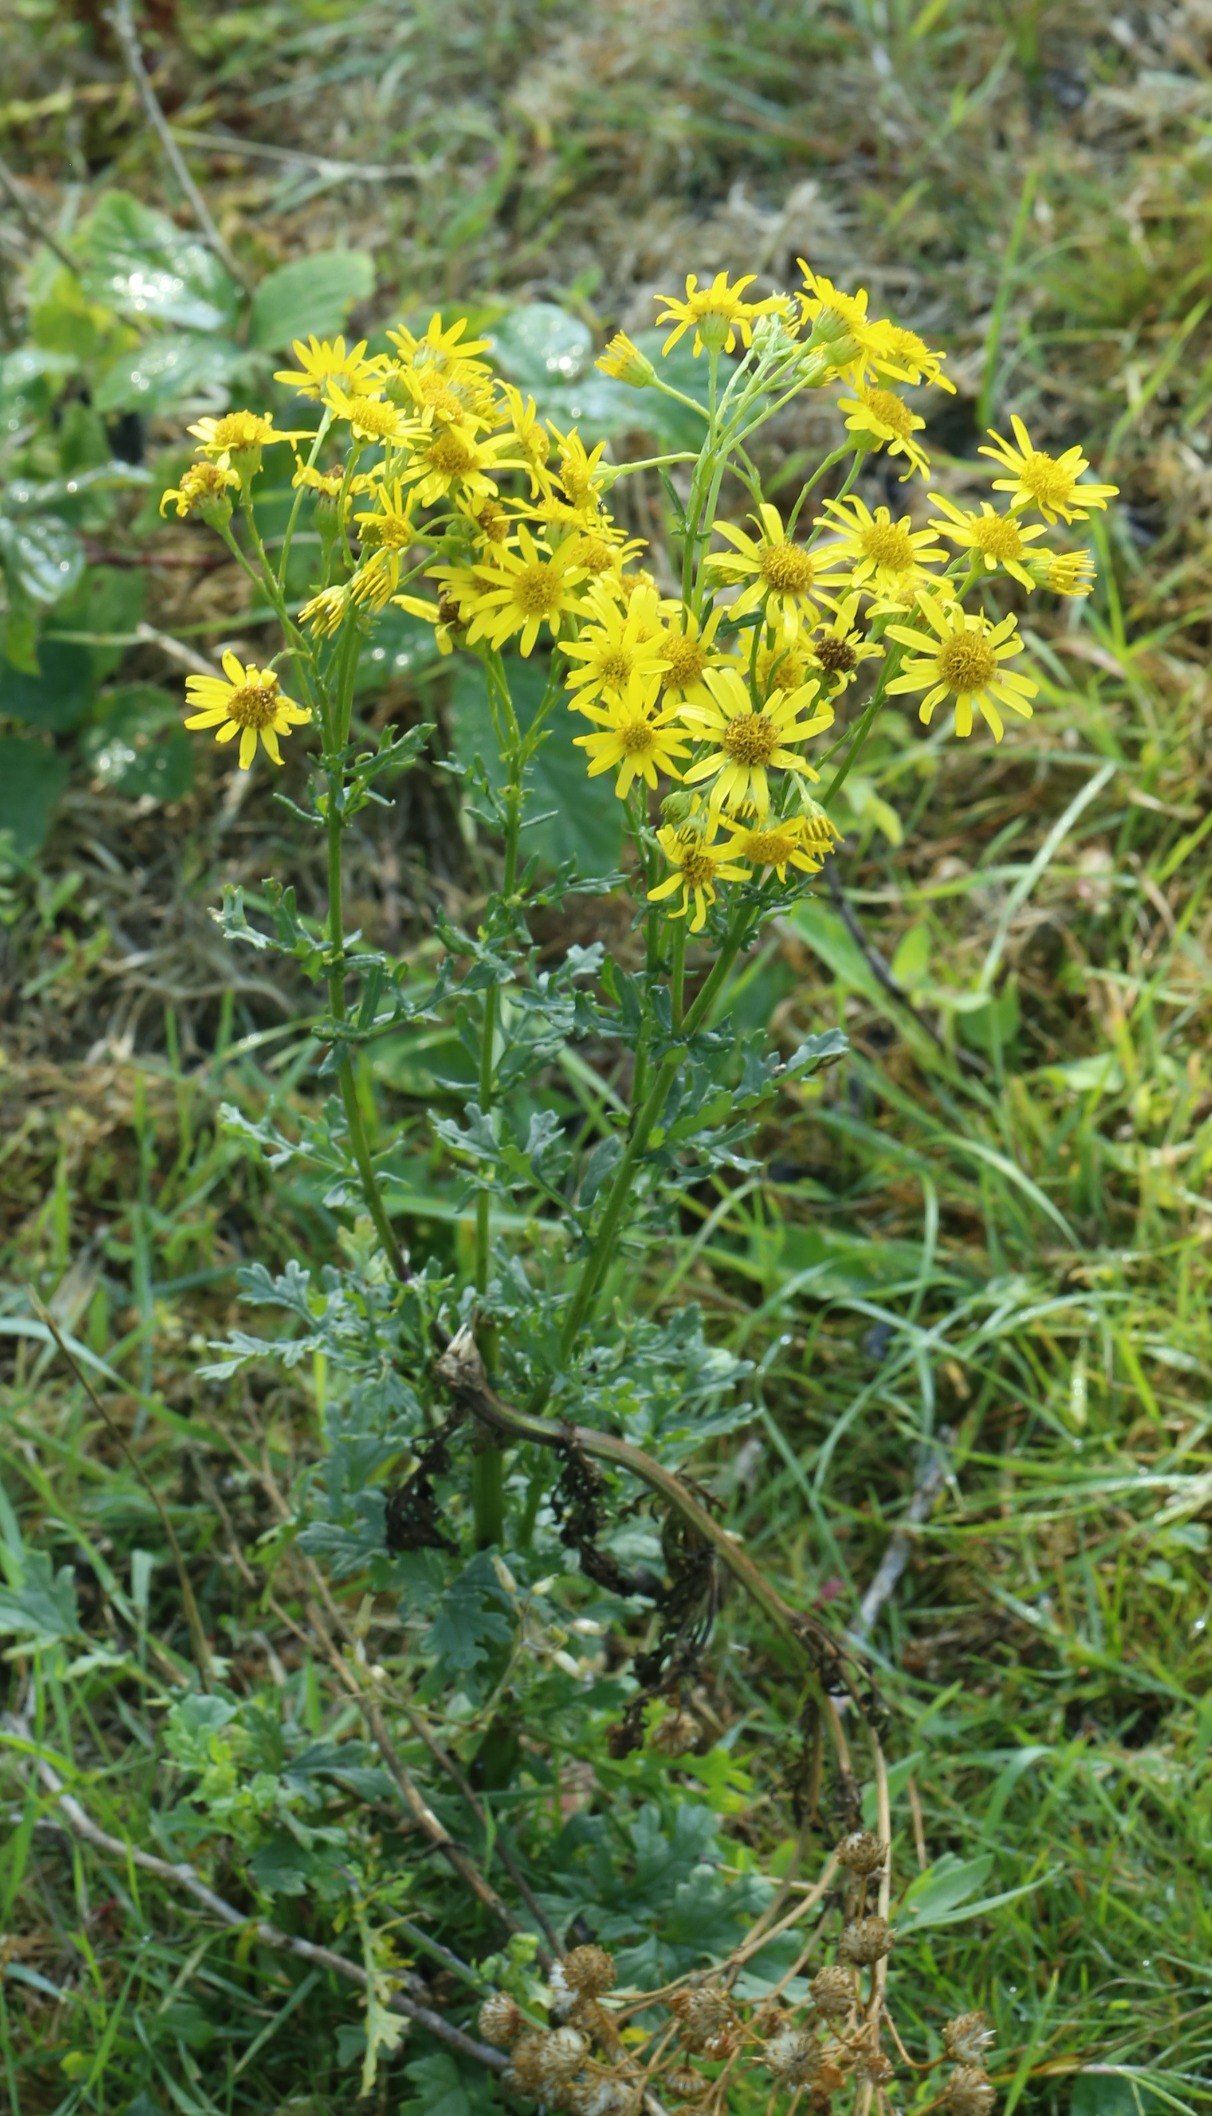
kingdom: Plantae
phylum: Tracheophyta
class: Magnoliopsida
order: Asterales
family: Asteraceae
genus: Jacobaea
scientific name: Jacobaea vulgaris
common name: Eng-brandbæger
